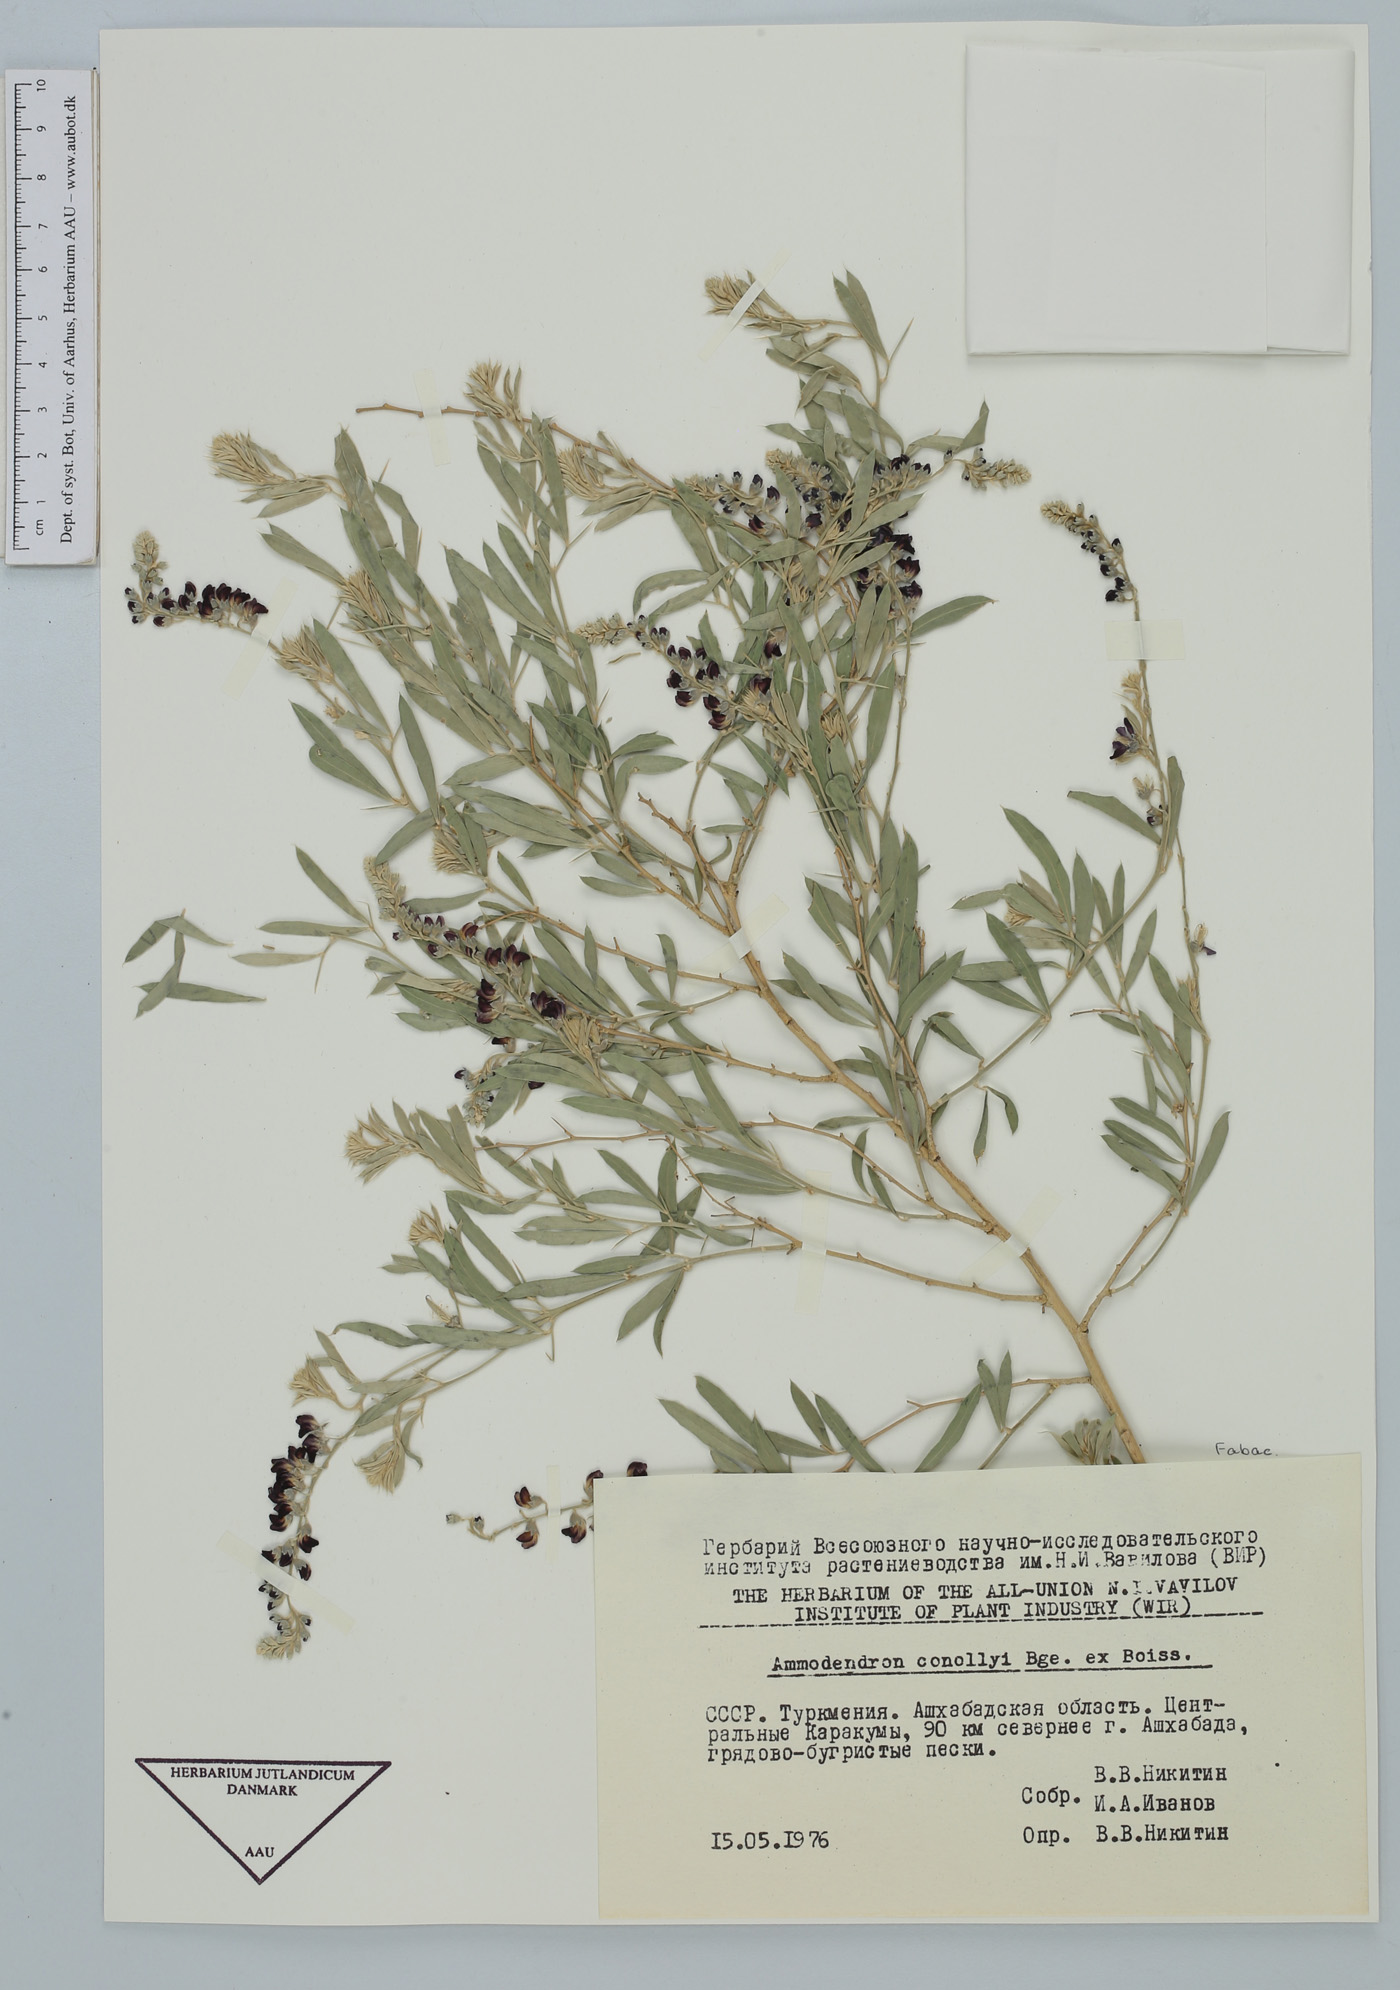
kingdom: Plantae
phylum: Tracheophyta
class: Magnoliopsida
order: Fabales
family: Fabaceae
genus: Ammodendron
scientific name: Ammodendron conollyi
